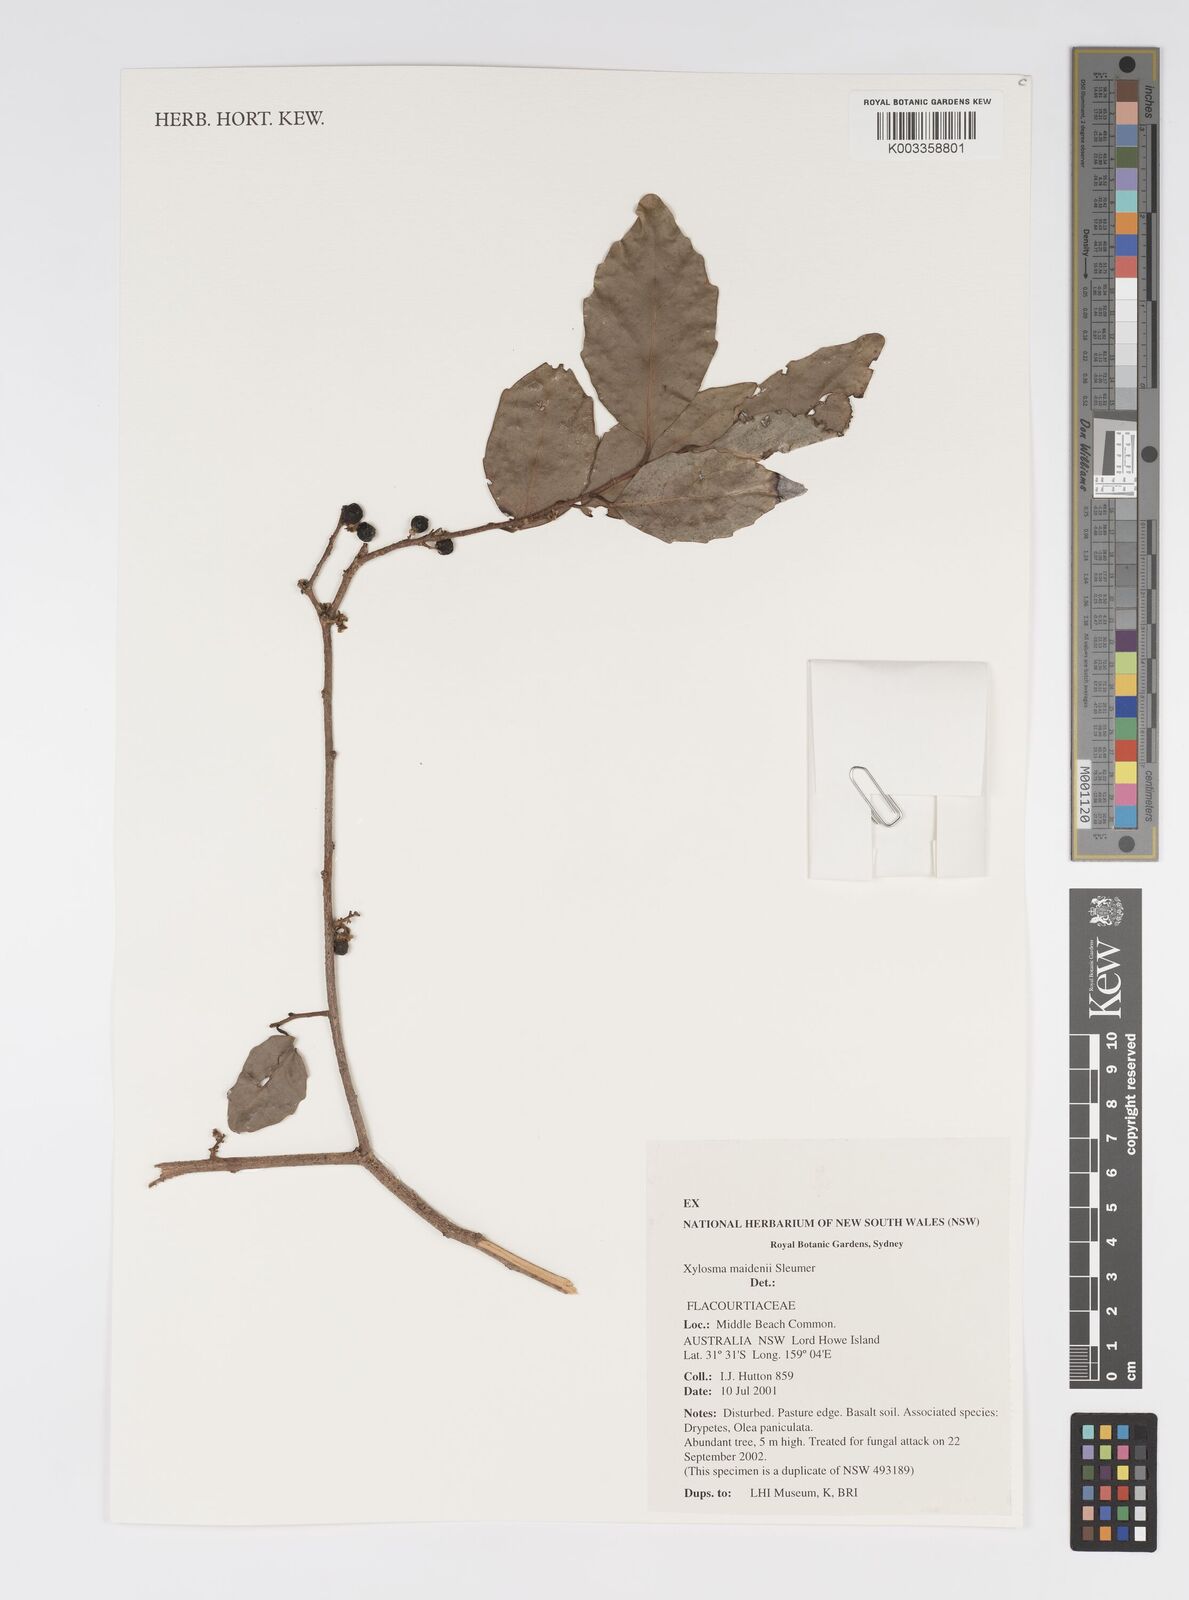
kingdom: Plantae
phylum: Tracheophyta
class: Magnoliopsida
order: Malpighiales
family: Salicaceae
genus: Xylosma
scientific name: Xylosma maidenii
